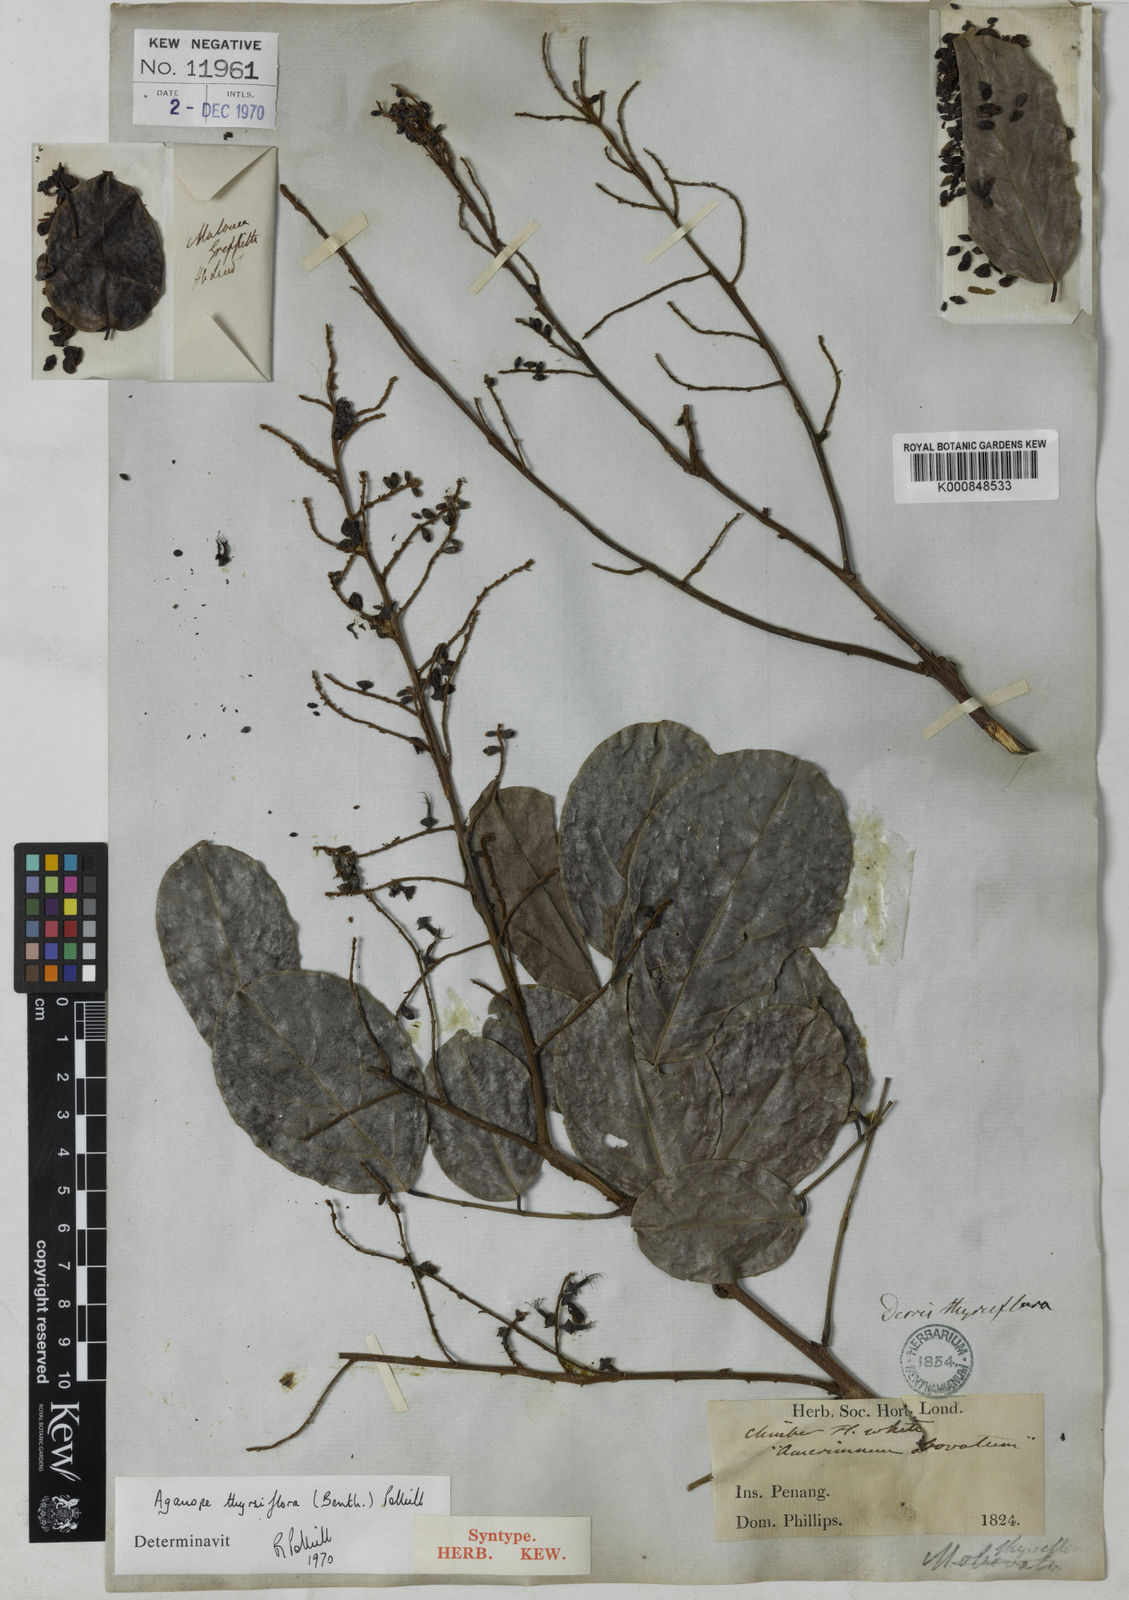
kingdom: Plantae
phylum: Tracheophyta
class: Magnoliopsida
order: Fabales
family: Fabaceae
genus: Aganope
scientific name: Aganope thyrsiflora
